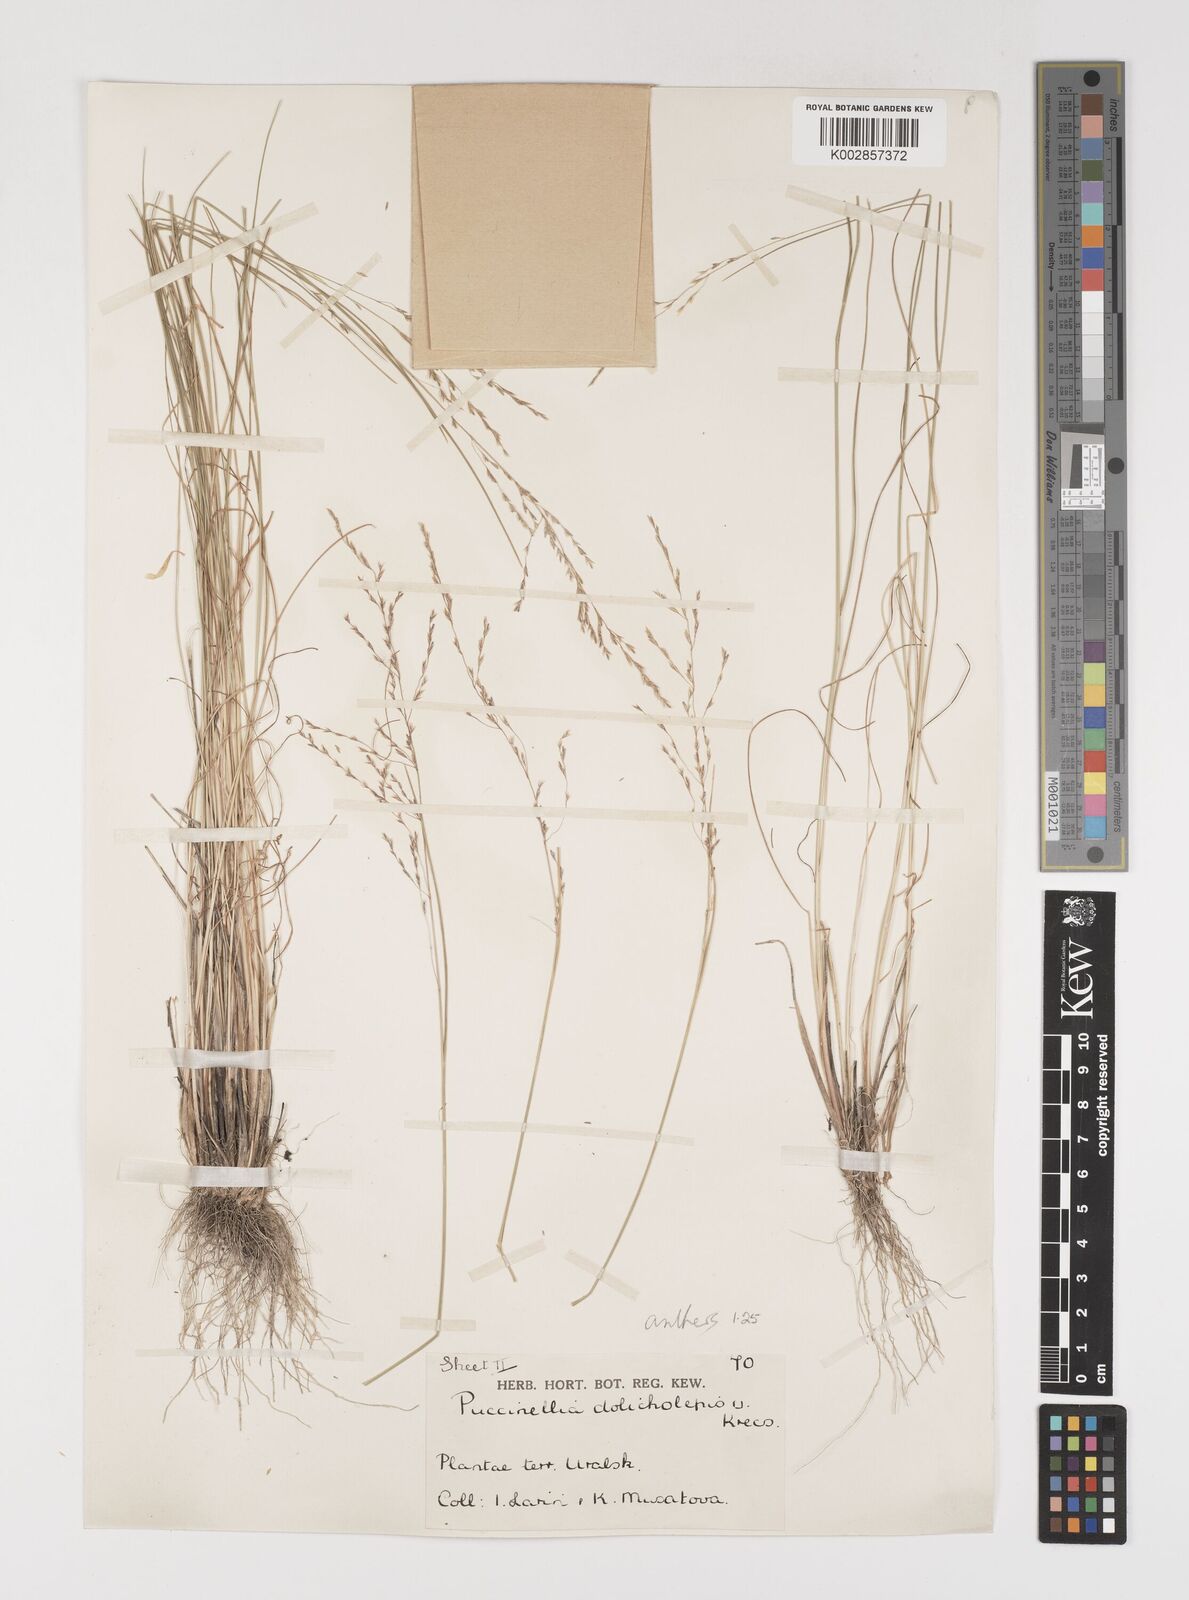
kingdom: Plantae
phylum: Tracheophyta
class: Liliopsida
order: Poales
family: Poaceae
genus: Puccinellia
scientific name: Puccinellia dolicholepis
